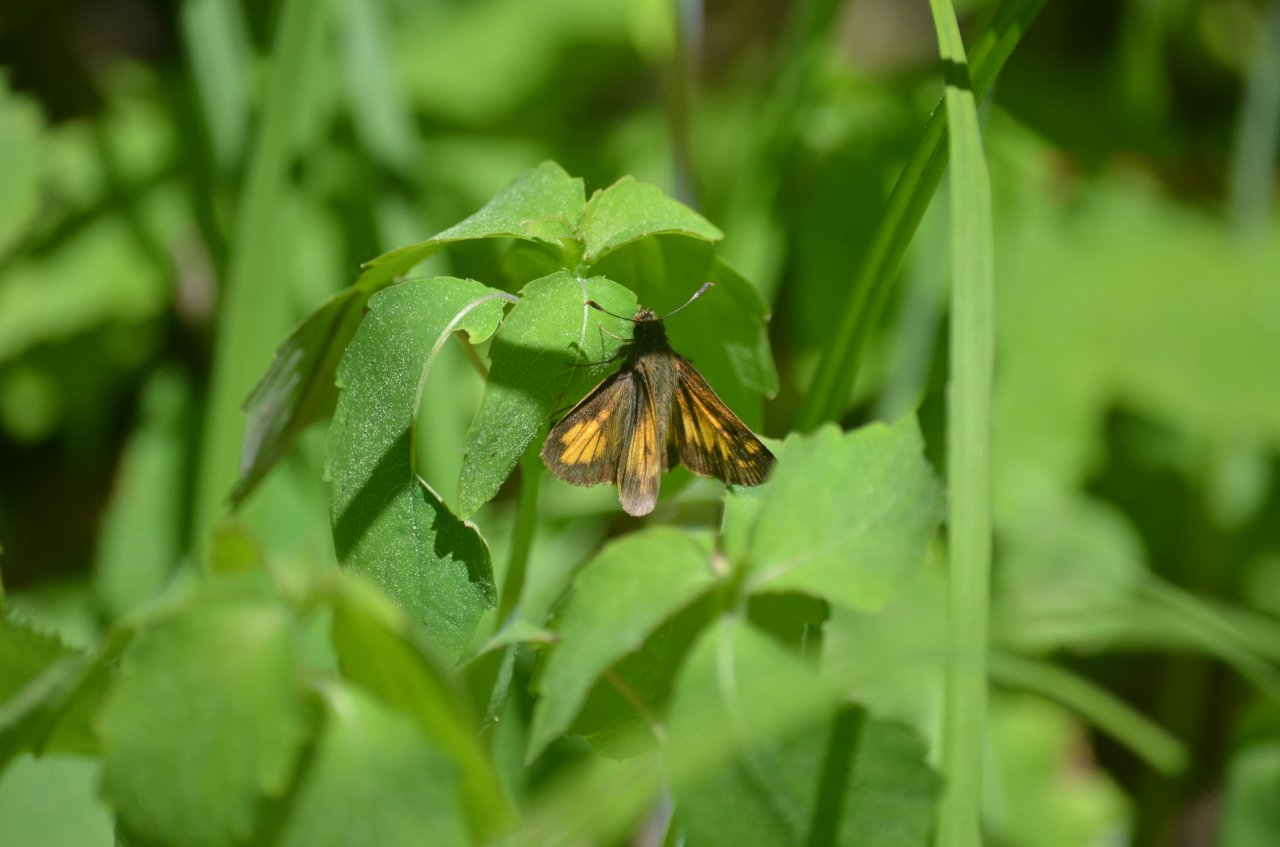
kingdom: Animalia
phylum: Arthropoda
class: Insecta
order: Lepidoptera
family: Hesperiidae
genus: Lon
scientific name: Lon hobomok
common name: Hobomok Skipper
